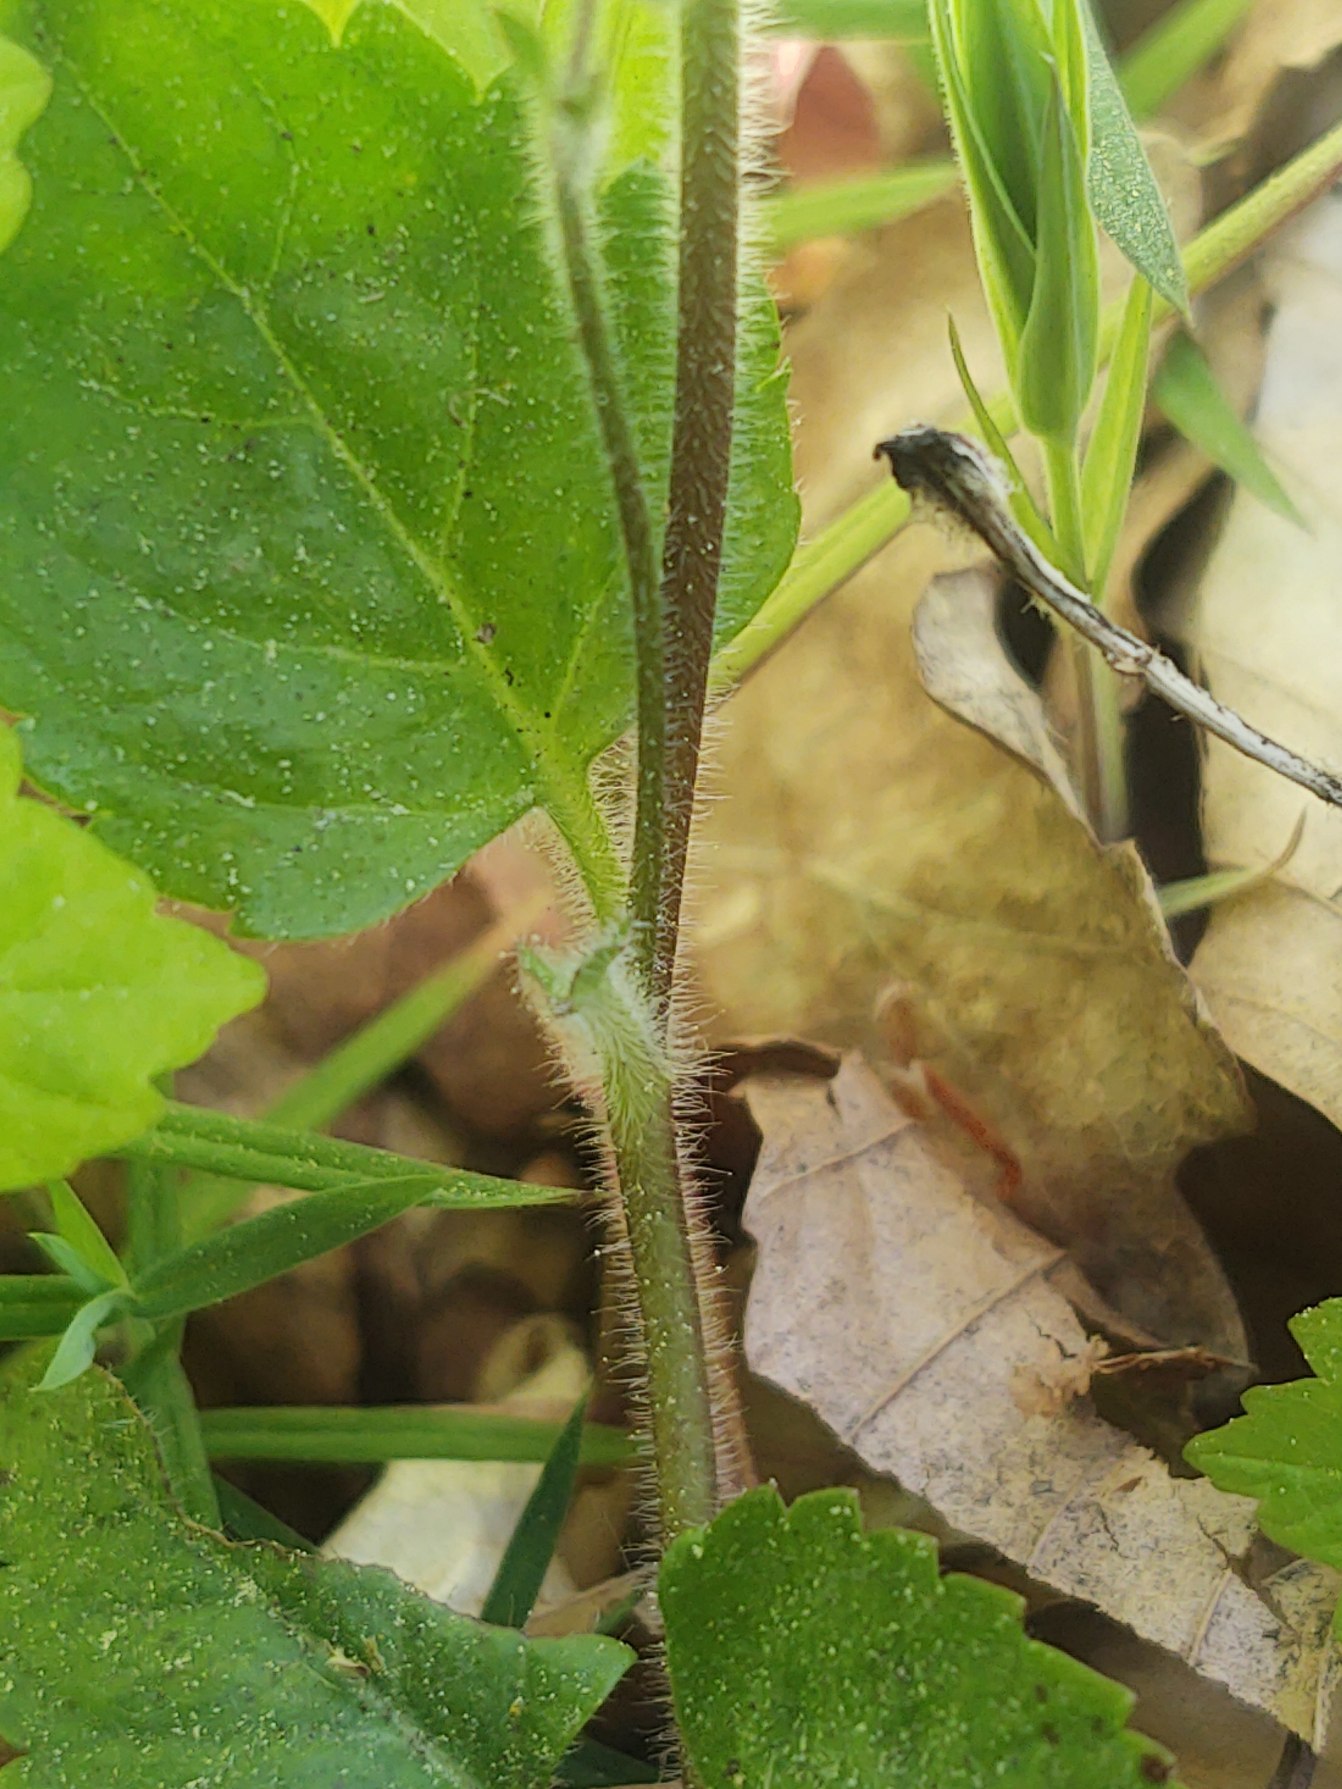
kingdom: Plantae
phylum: Tracheophyta
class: Magnoliopsida
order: Lamiales
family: Plantaginaceae
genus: Veronica
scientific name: Veronica montana
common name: Bjerg-ærenpris
